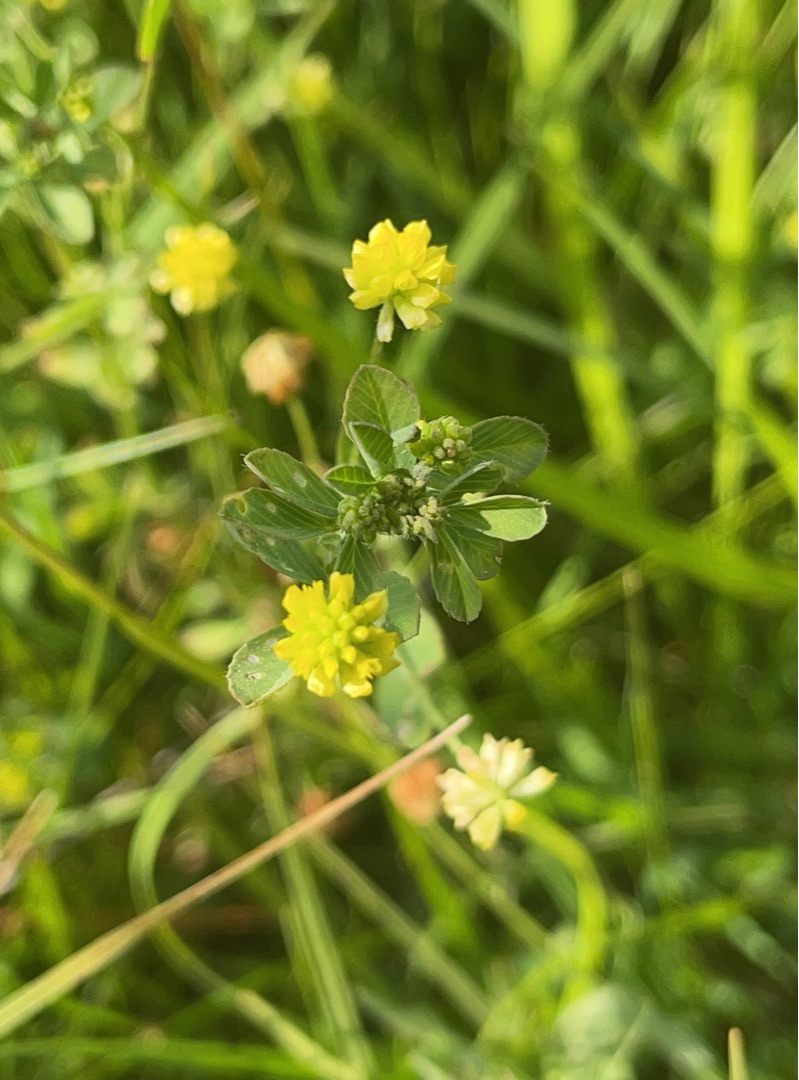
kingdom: Plantae
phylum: Tracheophyta
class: Magnoliopsida
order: Fabales
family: Fabaceae
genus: Medicago
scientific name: Medicago lupulina
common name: Humle-sneglebælg
